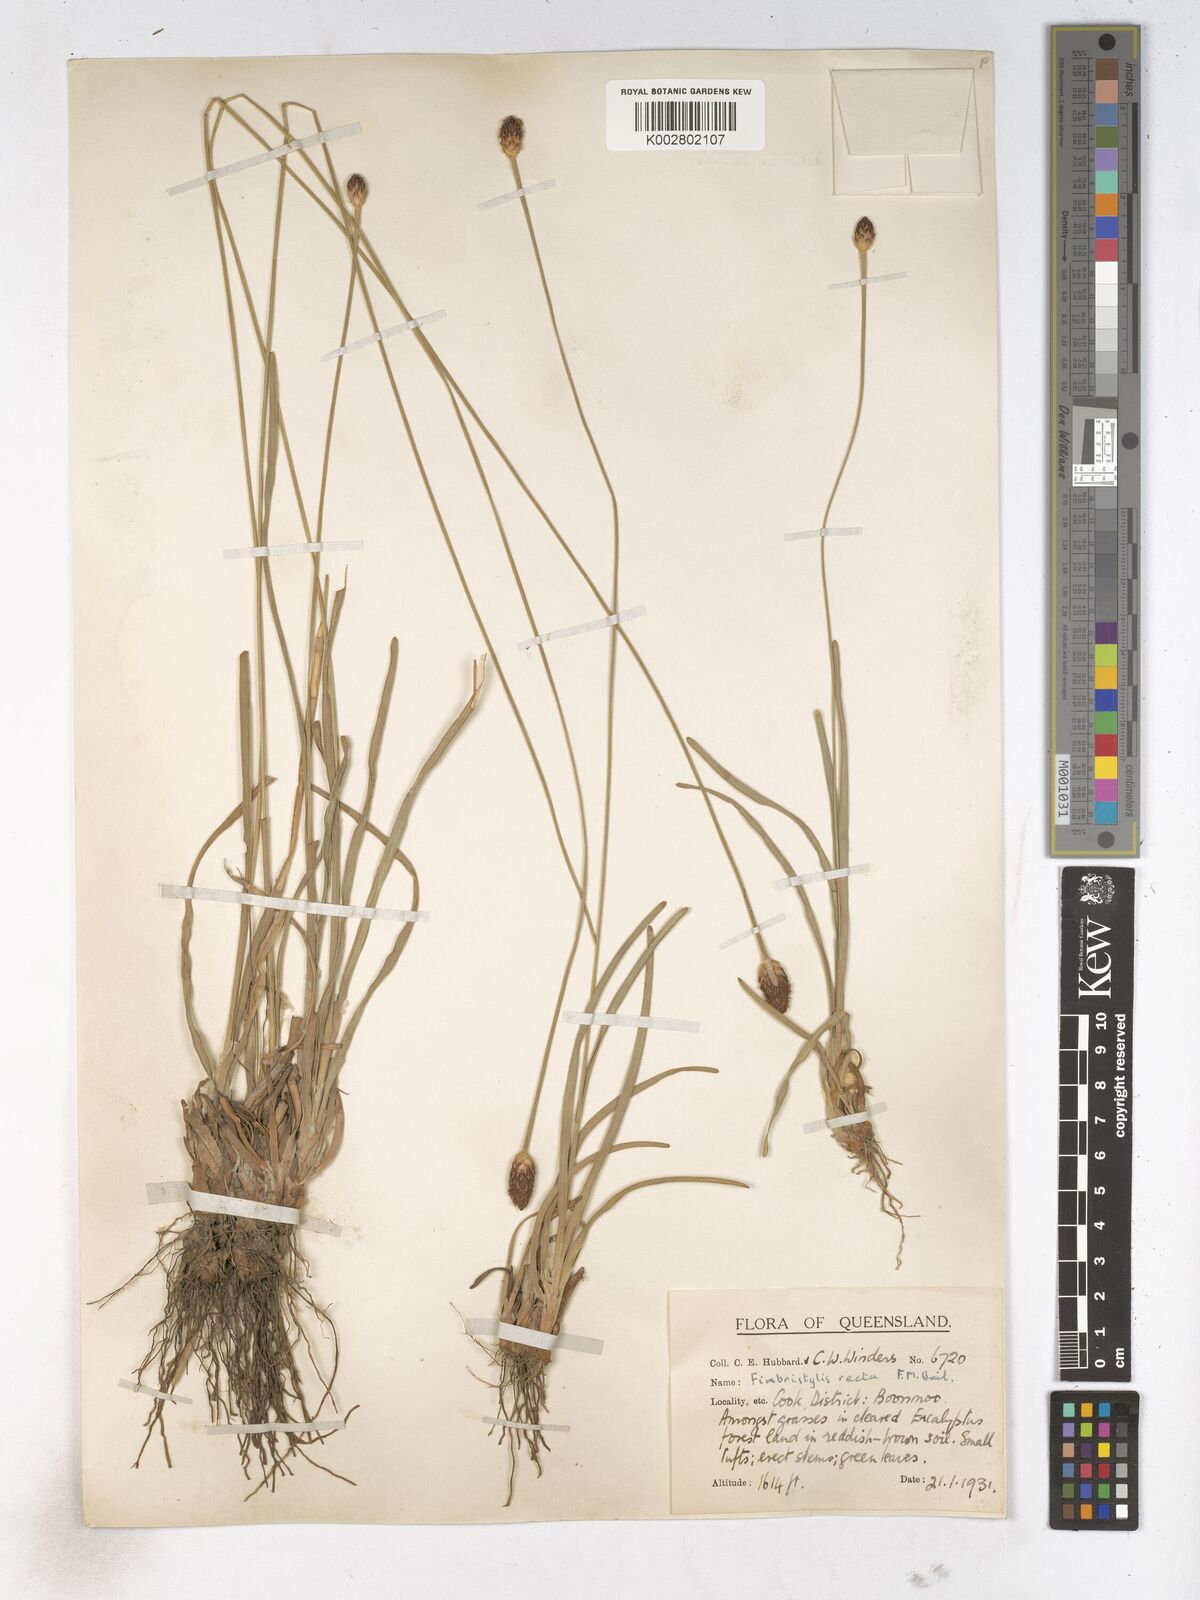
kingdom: Plantae
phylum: Tracheophyta
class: Liliopsida
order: Poales
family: Cyperaceae
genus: Fimbristylis
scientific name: Fimbristylis recta
